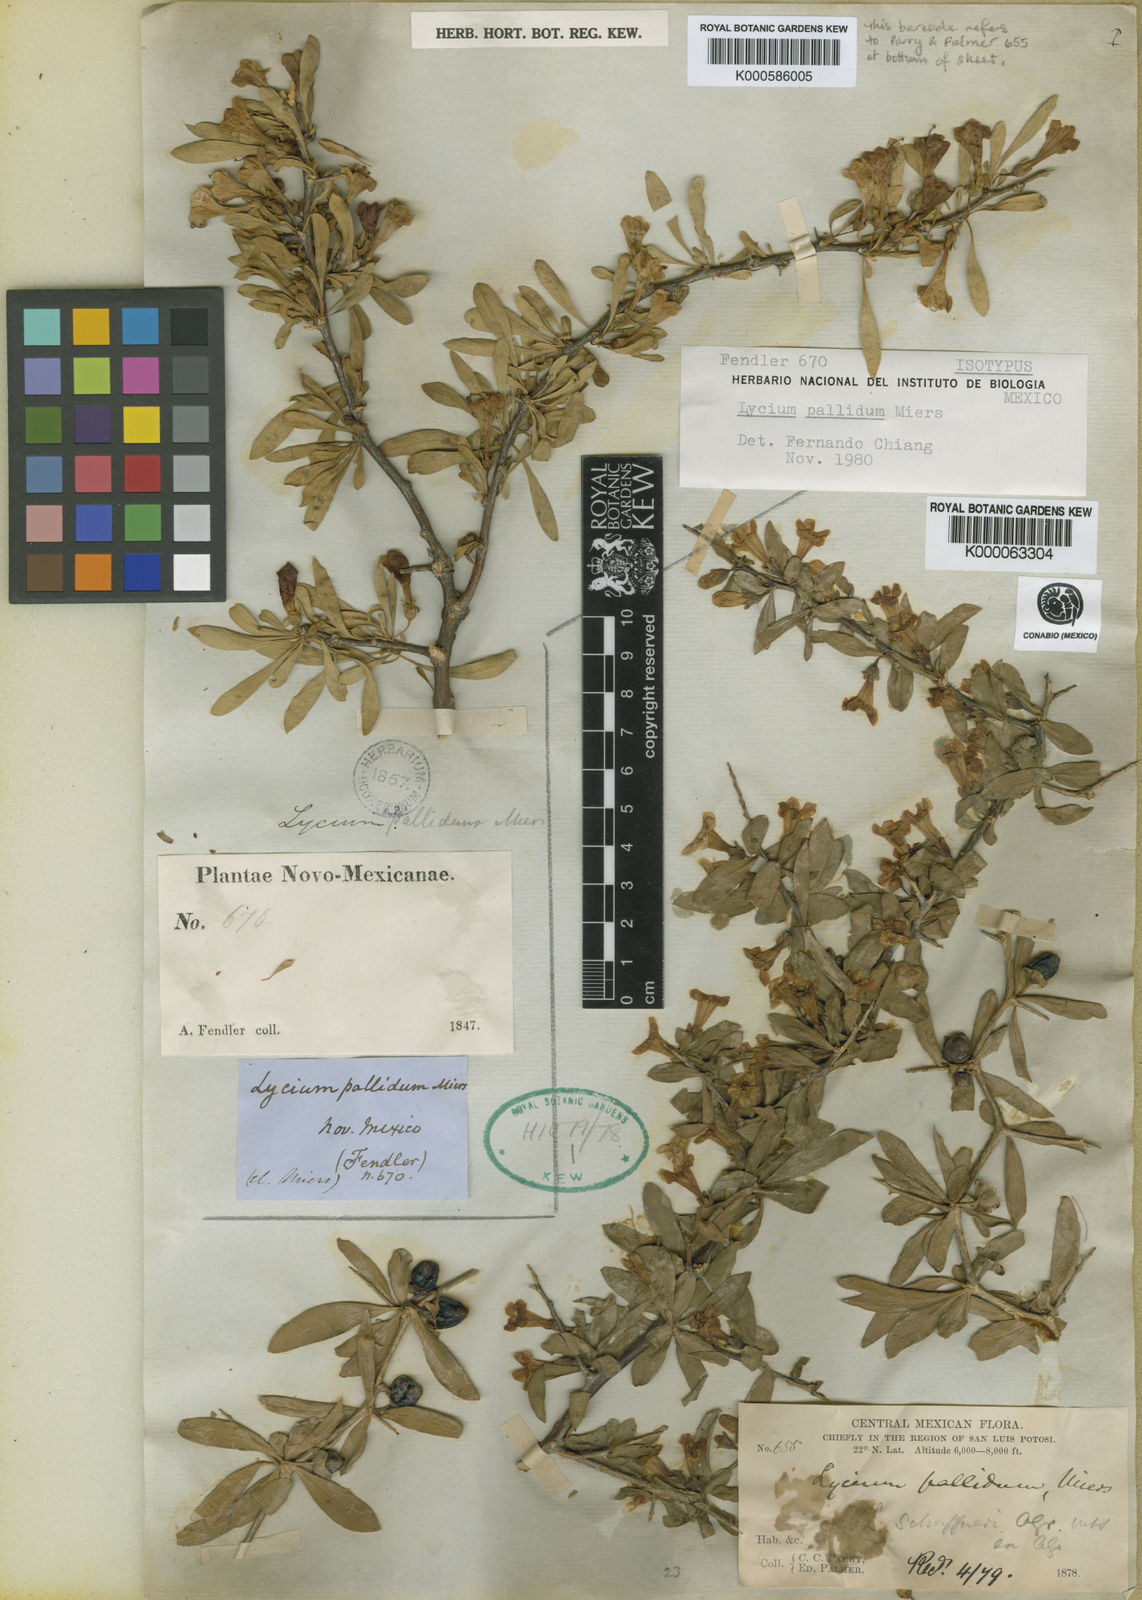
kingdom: Plantae
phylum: Tracheophyta
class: Magnoliopsida
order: Solanales
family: Solanaceae
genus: Lycium
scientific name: Lycium pallidum
